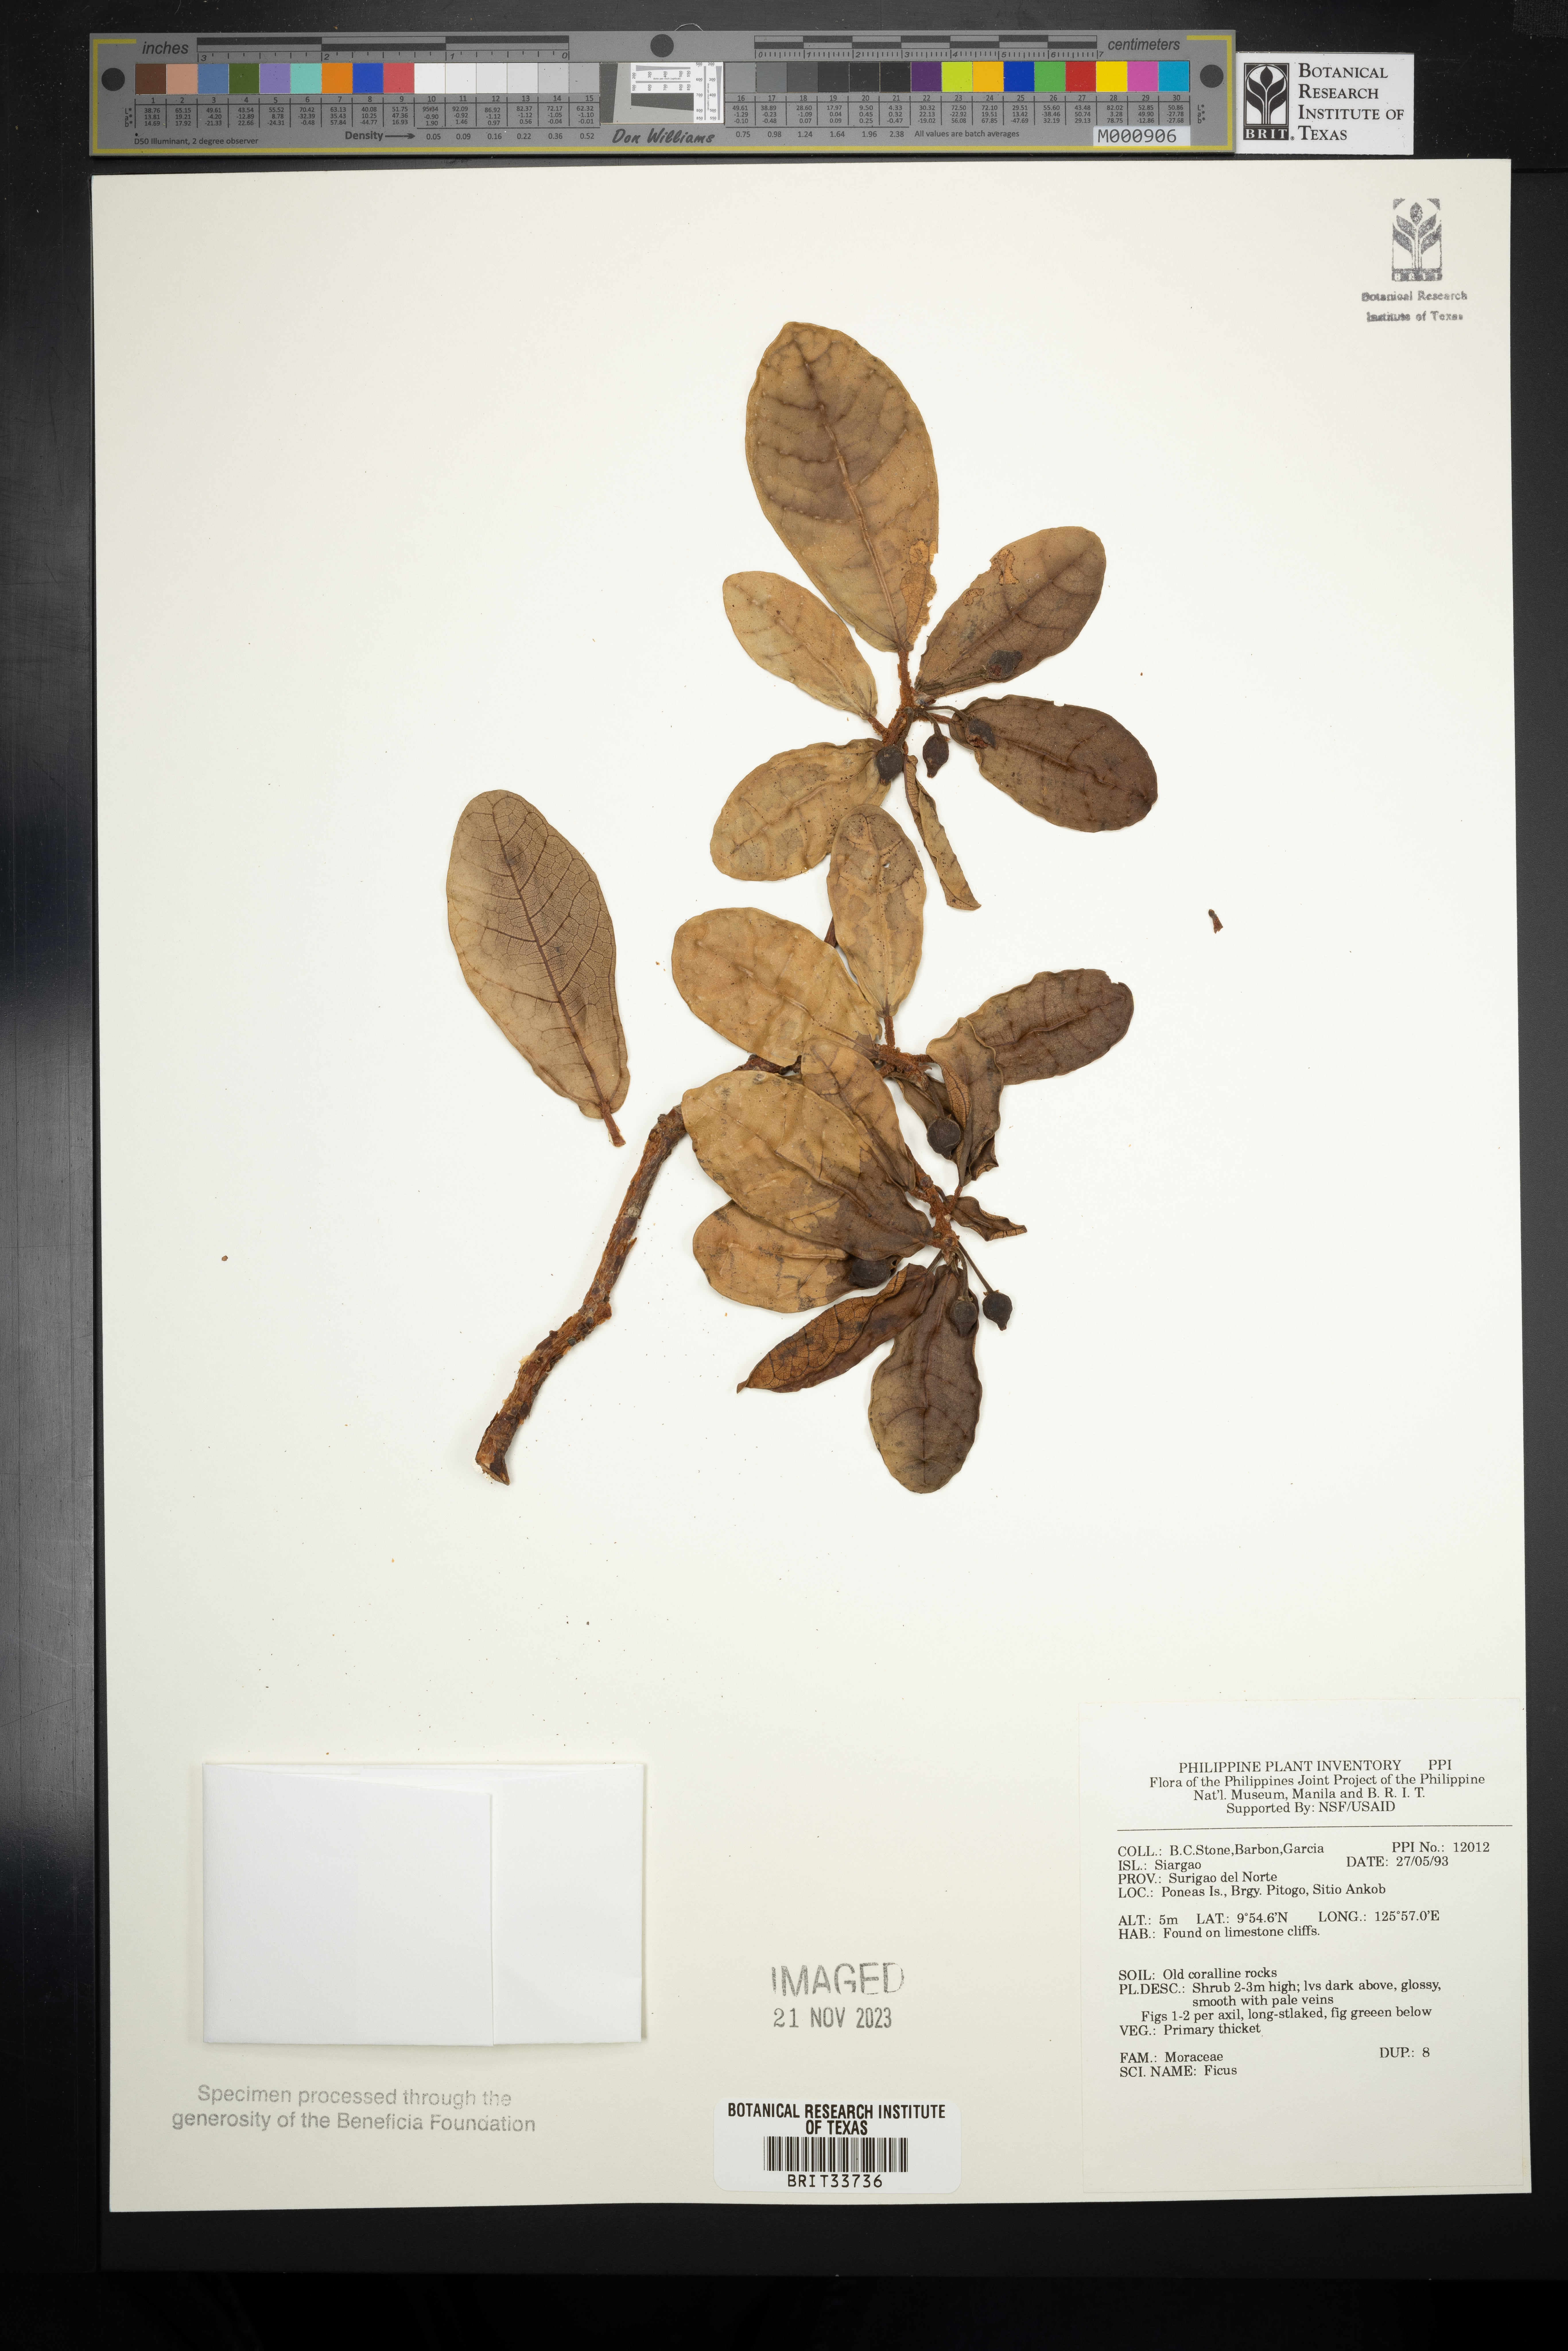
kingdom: Plantae
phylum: Tracheophyta
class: Magnoliopsida
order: Rosales
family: Moraceae
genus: Ficus
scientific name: Ficus
